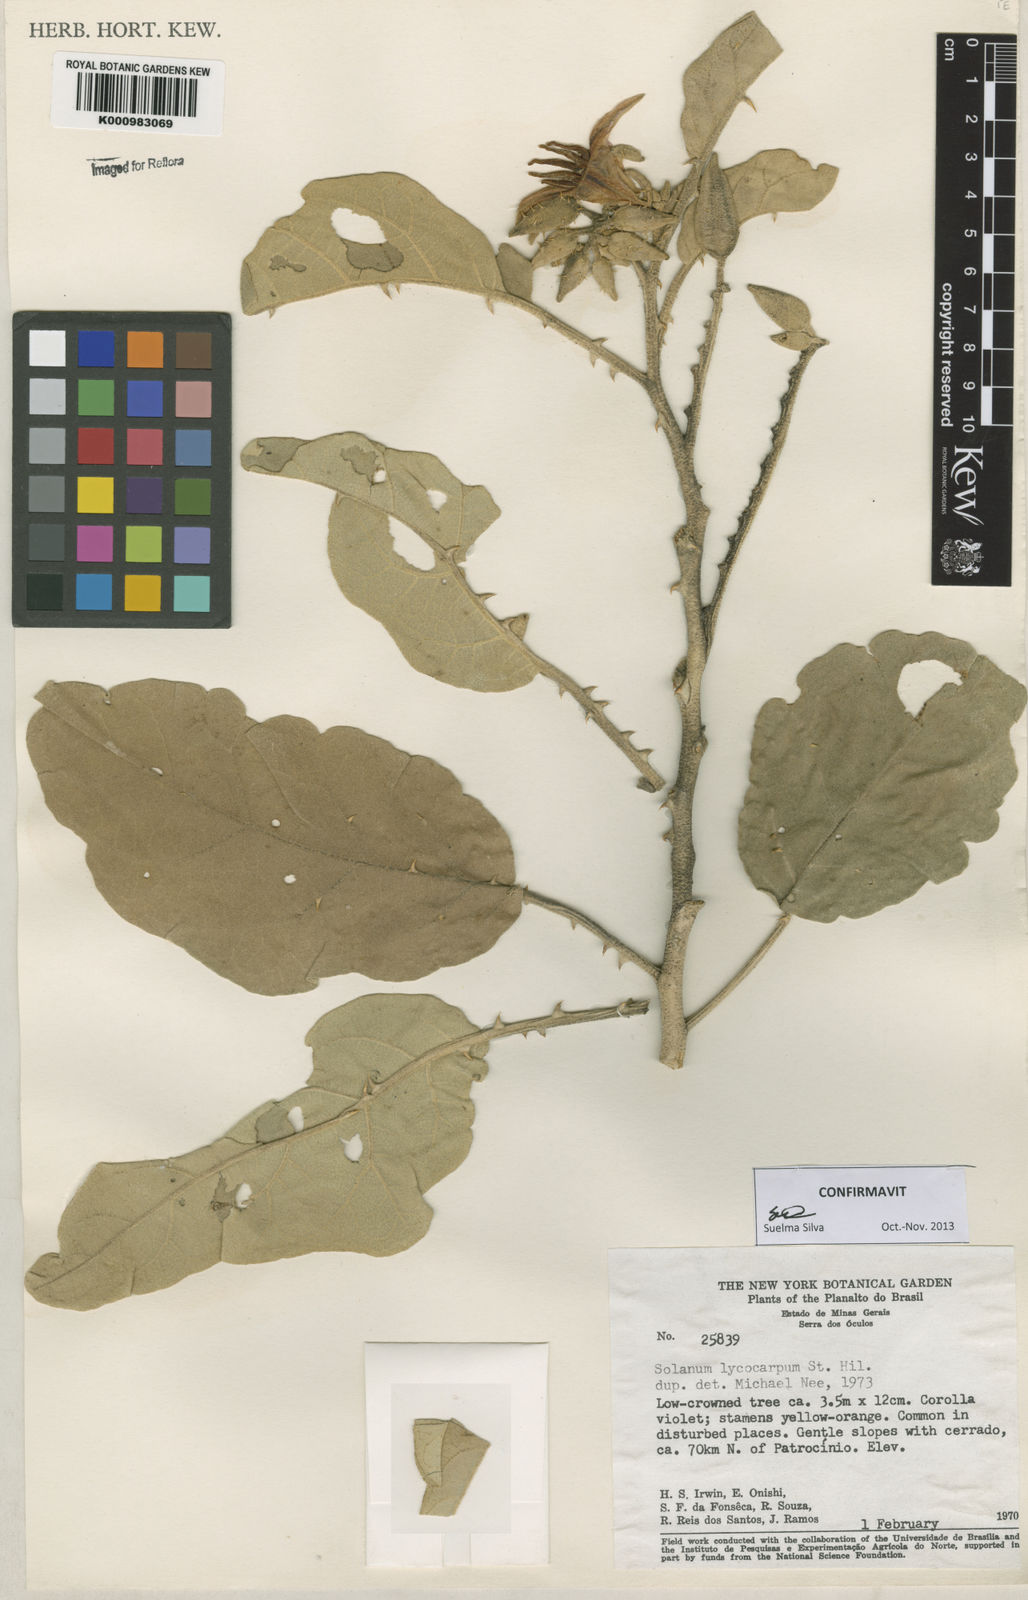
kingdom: Plantae
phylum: Tracheophyta
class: Magnoliopsida
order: Solanales
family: Solanaceae
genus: Solanum
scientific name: Solanum lycocarpum
